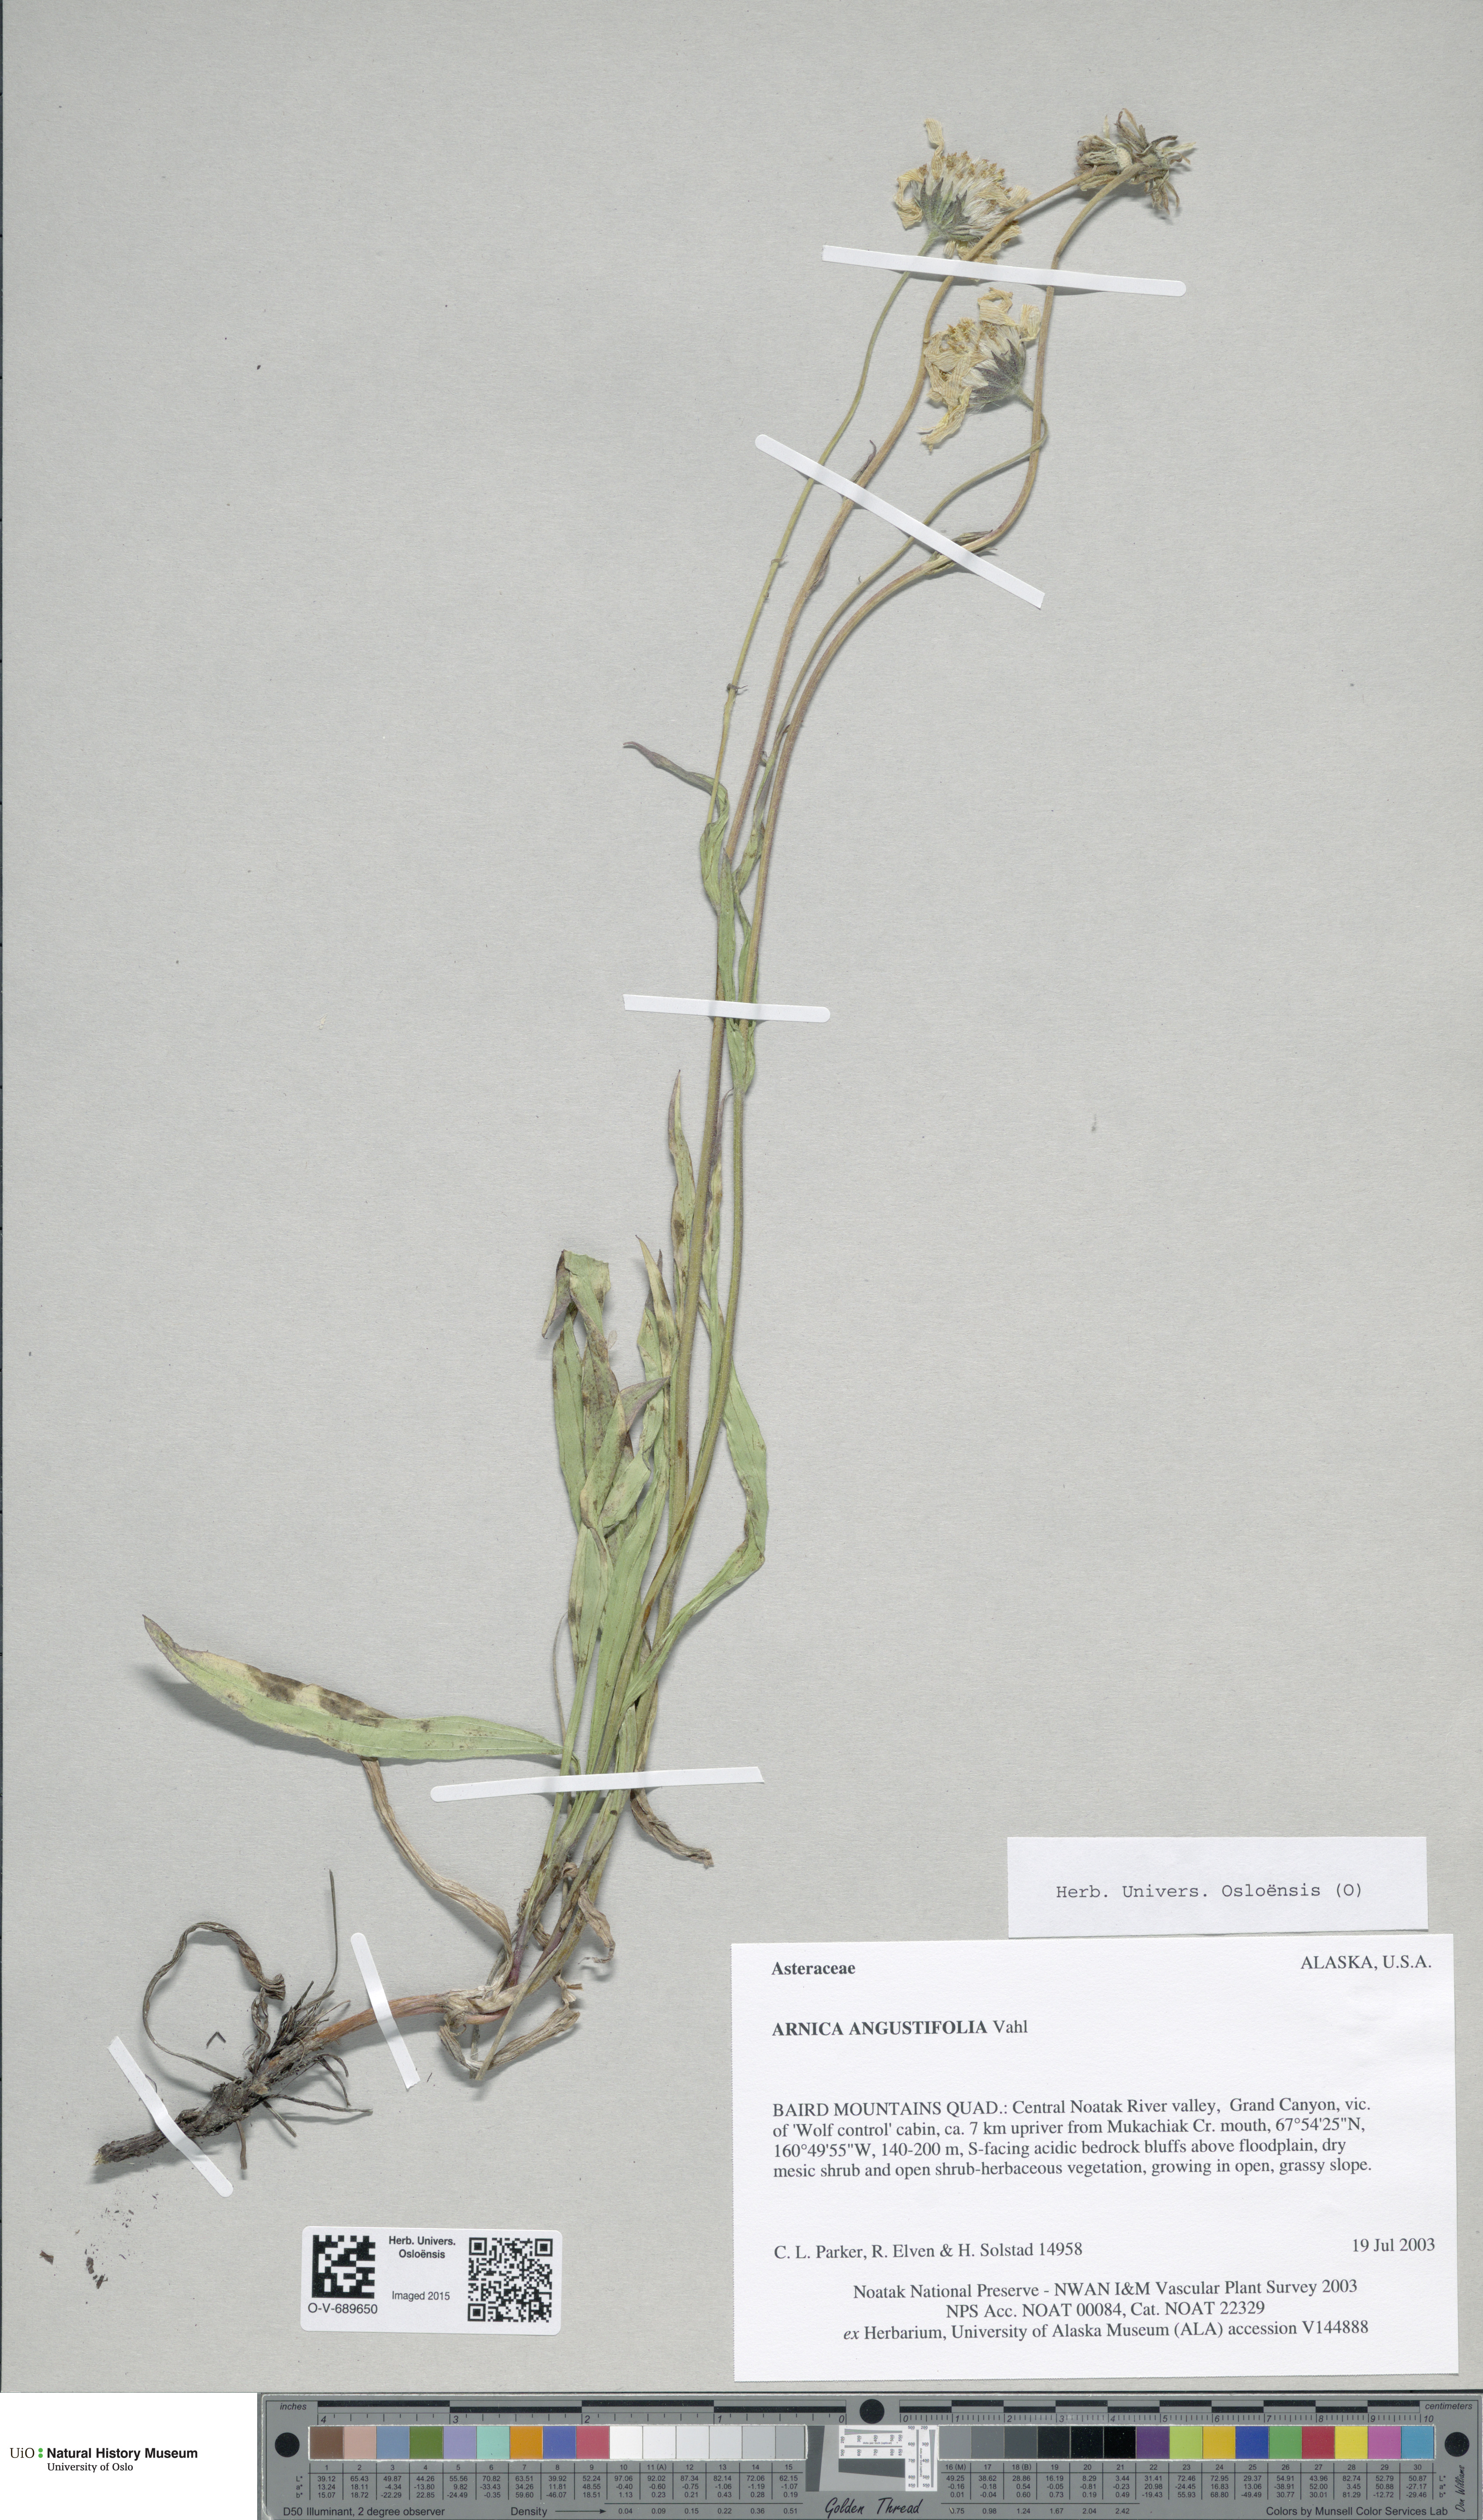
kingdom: Plantae
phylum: Tracheophyta
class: Magnoliopsida
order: Asterales
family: Asteraceae
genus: Arnica
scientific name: Arnica angustifolia
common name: Arctic arnica
